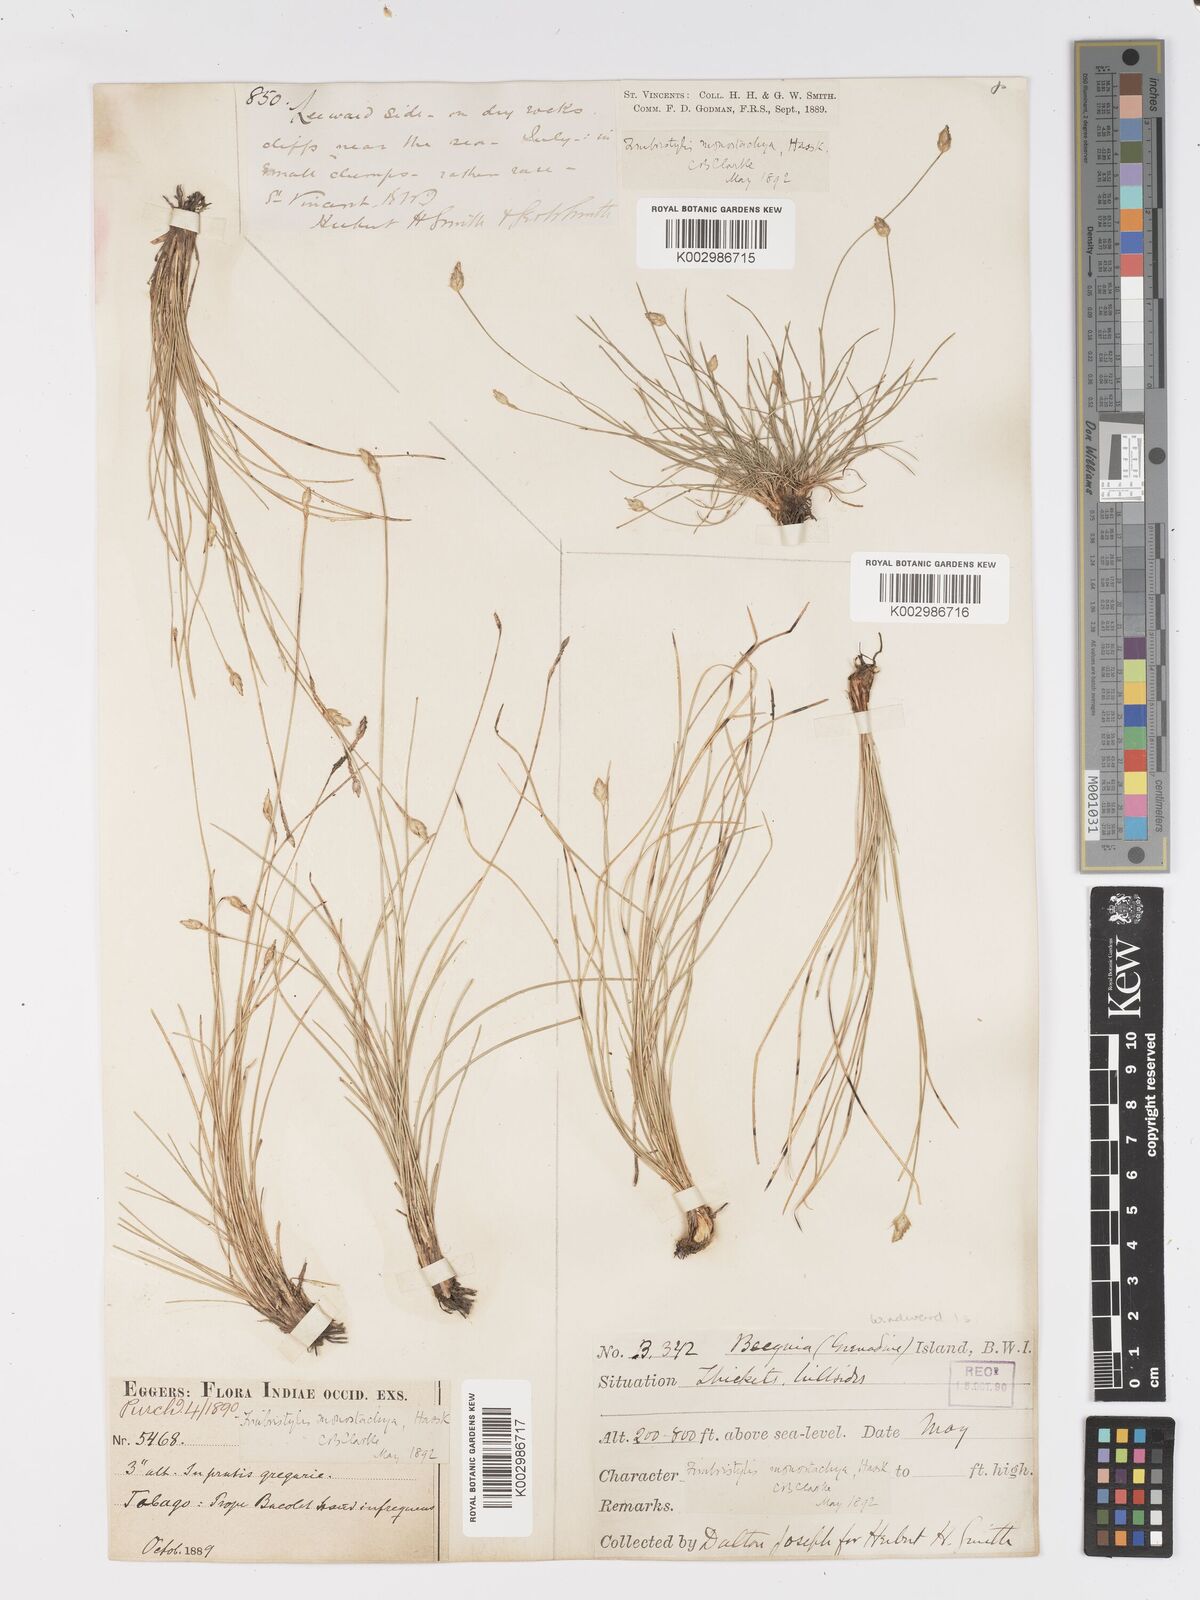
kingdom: Plantae
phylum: Tracheophyta
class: Liliopsida
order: Poales
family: Cyperaceae
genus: Fimbristylis
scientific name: Fimbristylis
